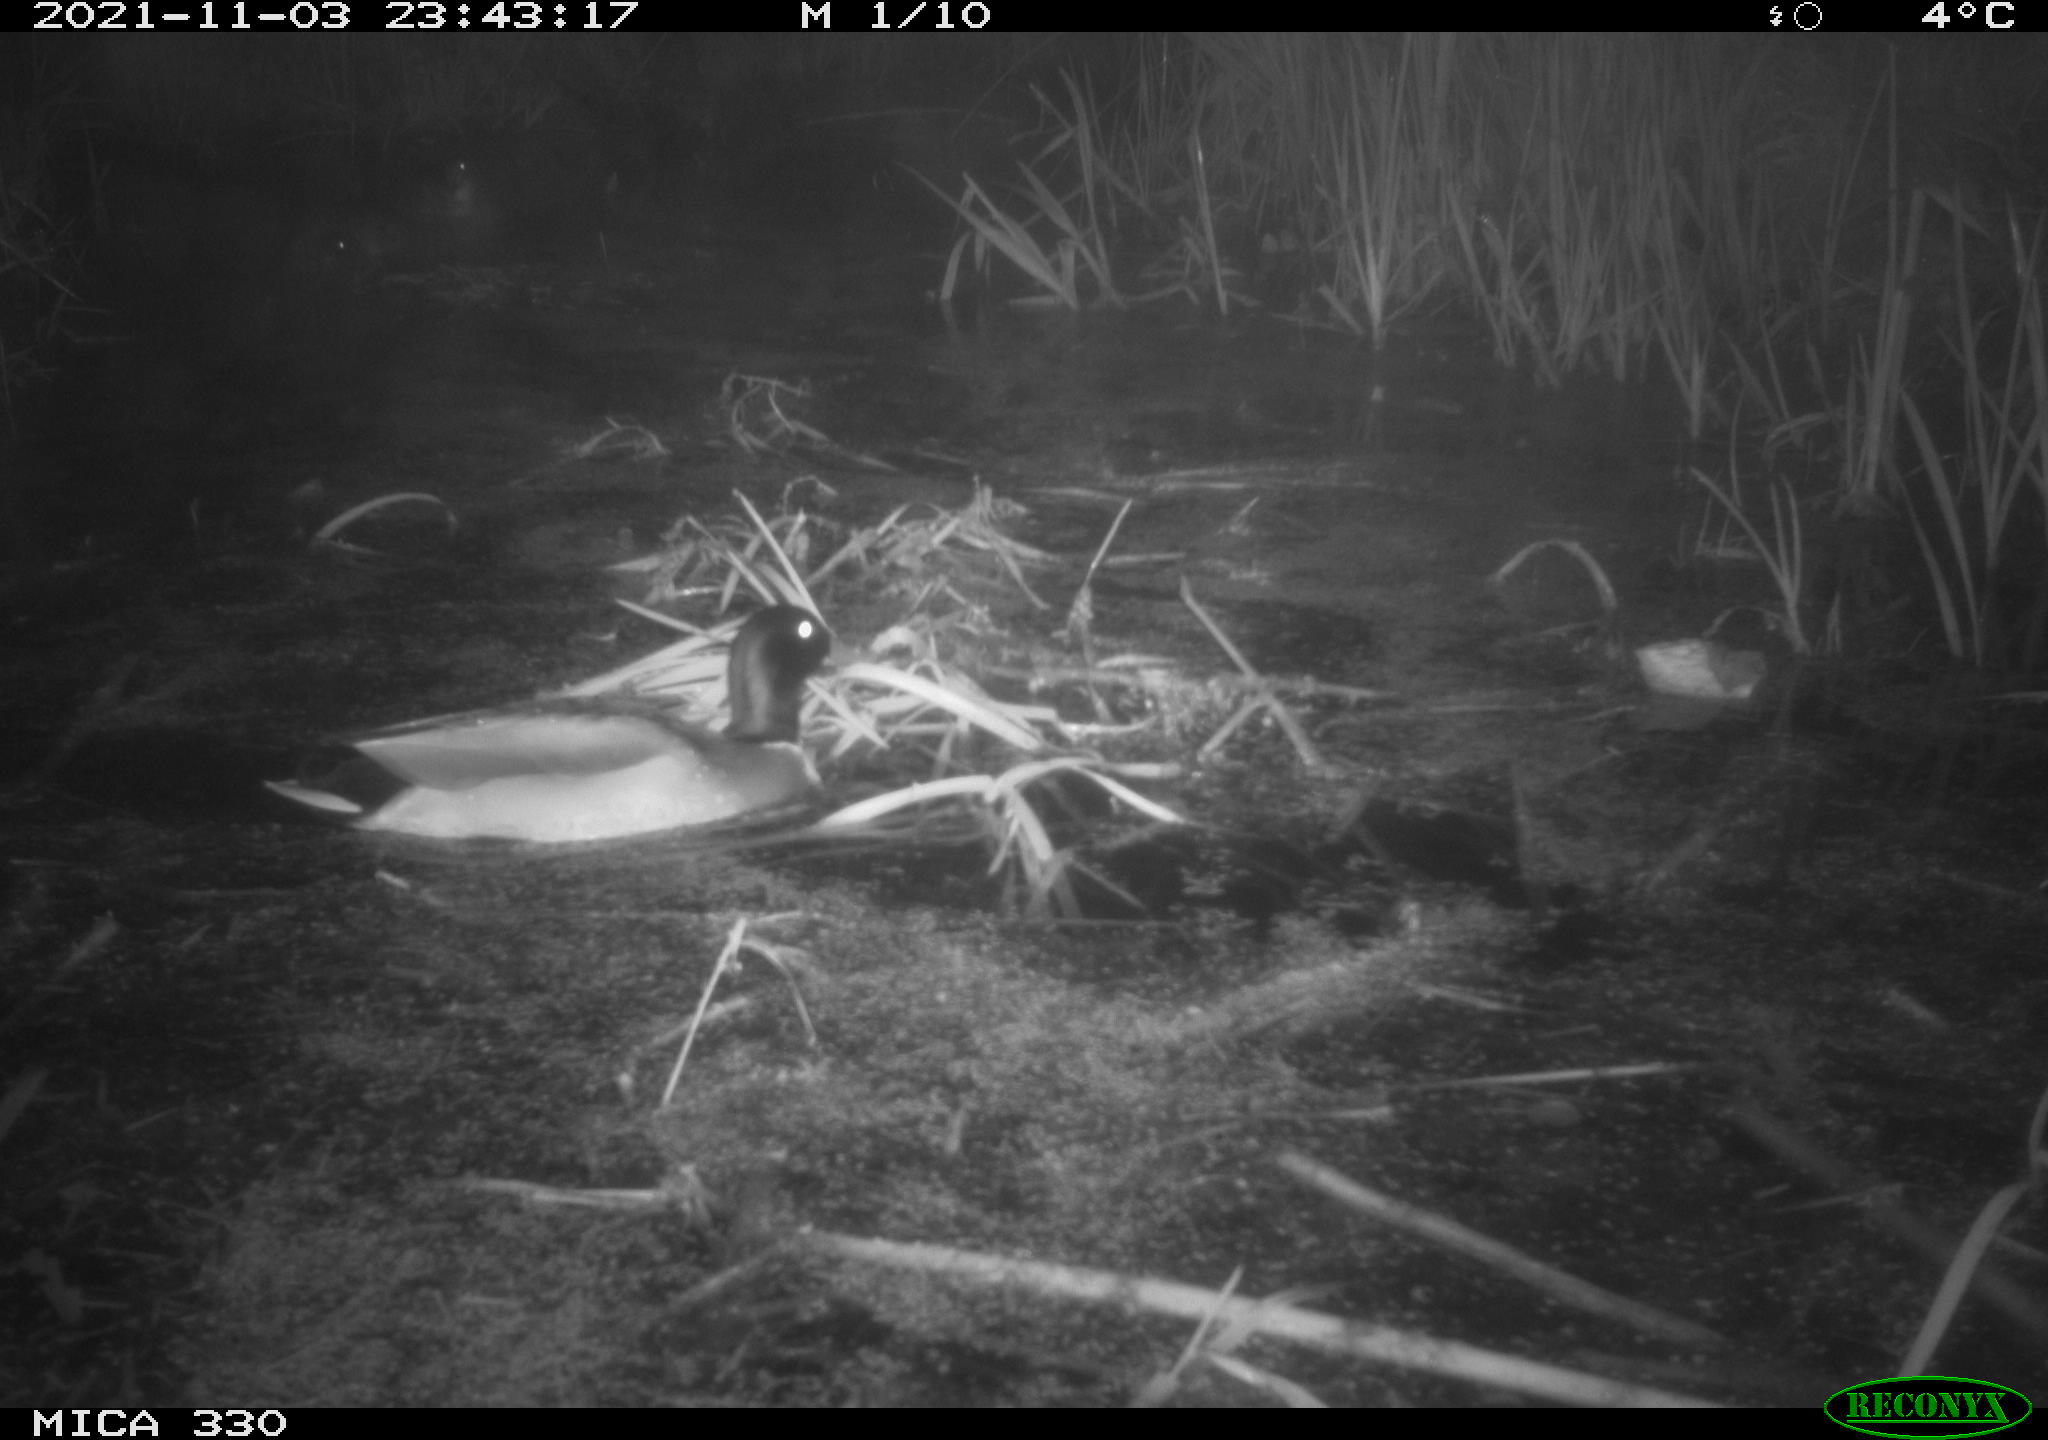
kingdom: Animalia
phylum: Chordata
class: Aves
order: Anseriformes
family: Anatidae
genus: Anas
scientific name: Anas platyrhynchos
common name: Mallard
